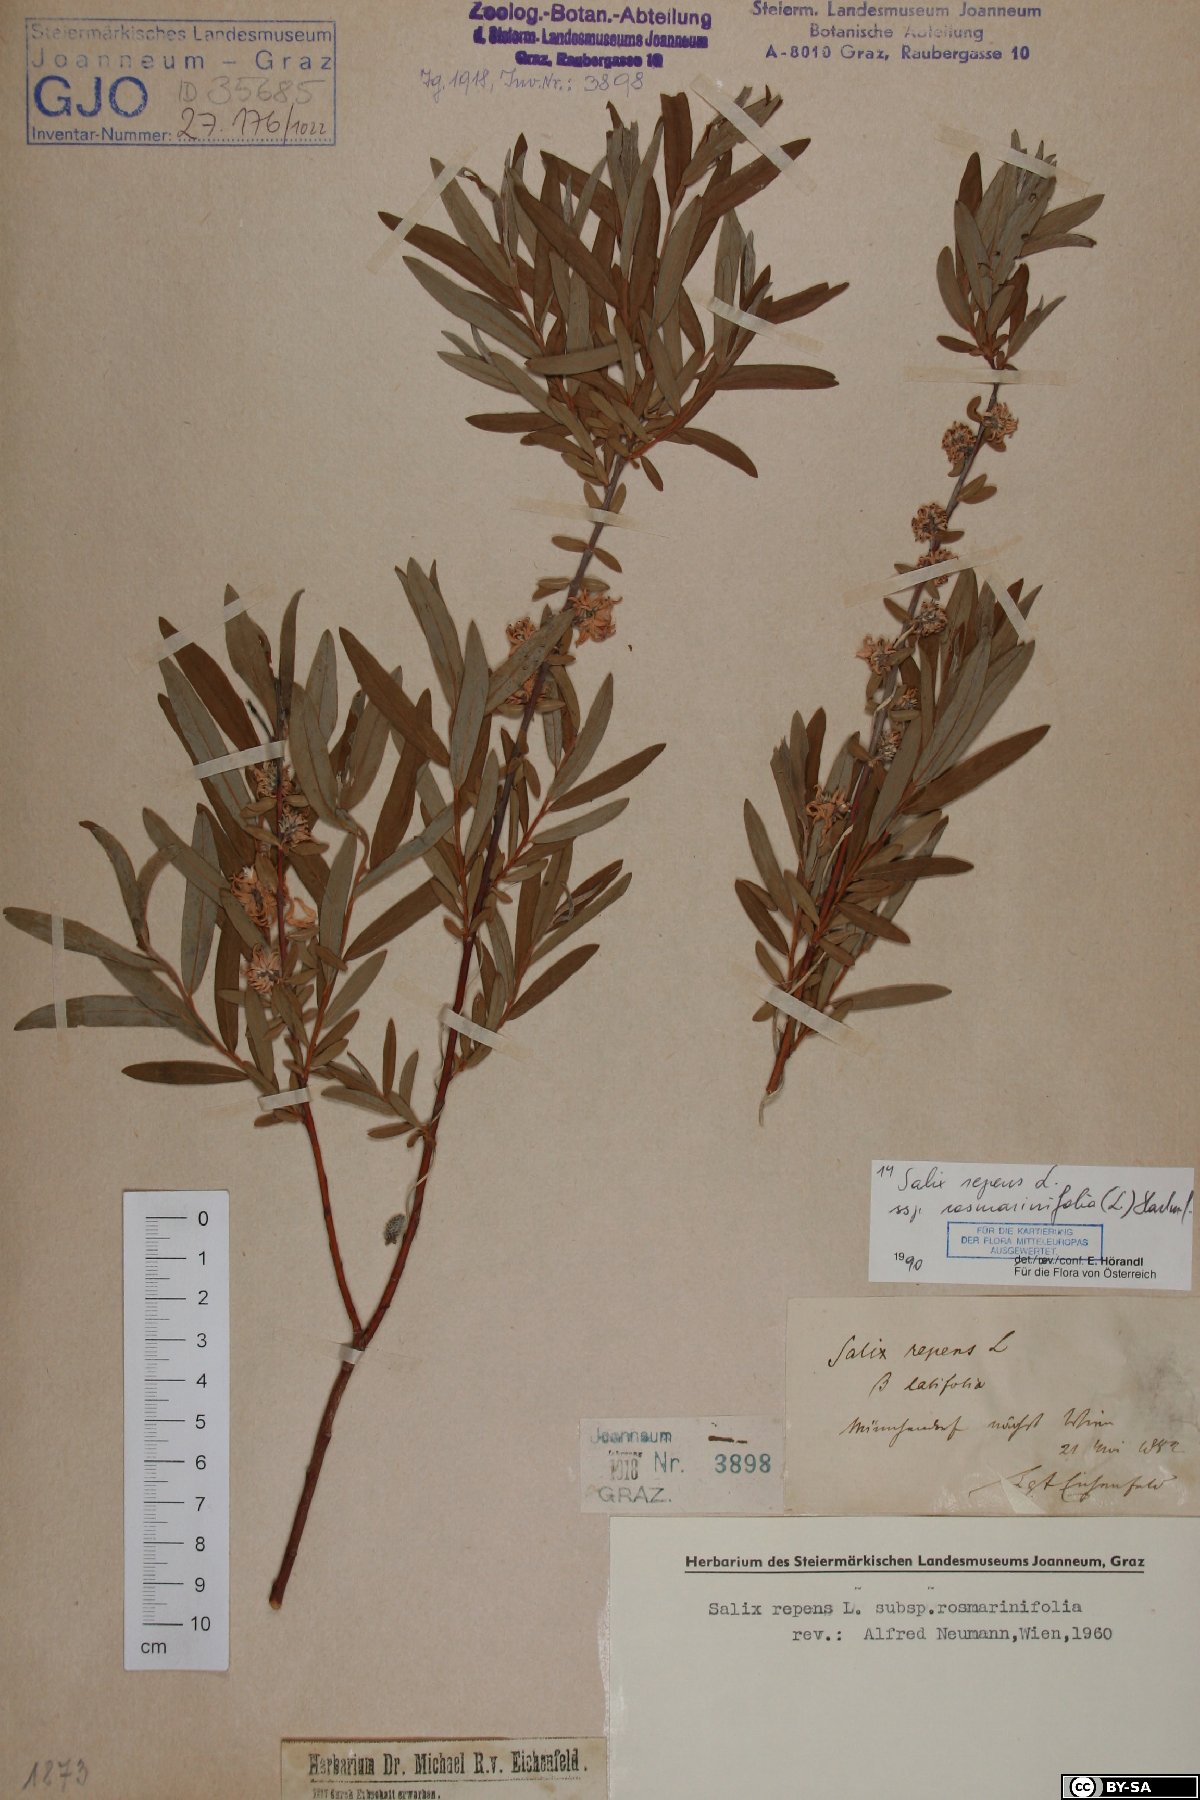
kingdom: Plantae
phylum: Tracheophyta
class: Magnoliopsida
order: Malpighiales
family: Salicaceae
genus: Salix
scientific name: Salix repens
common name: Creeping willow
